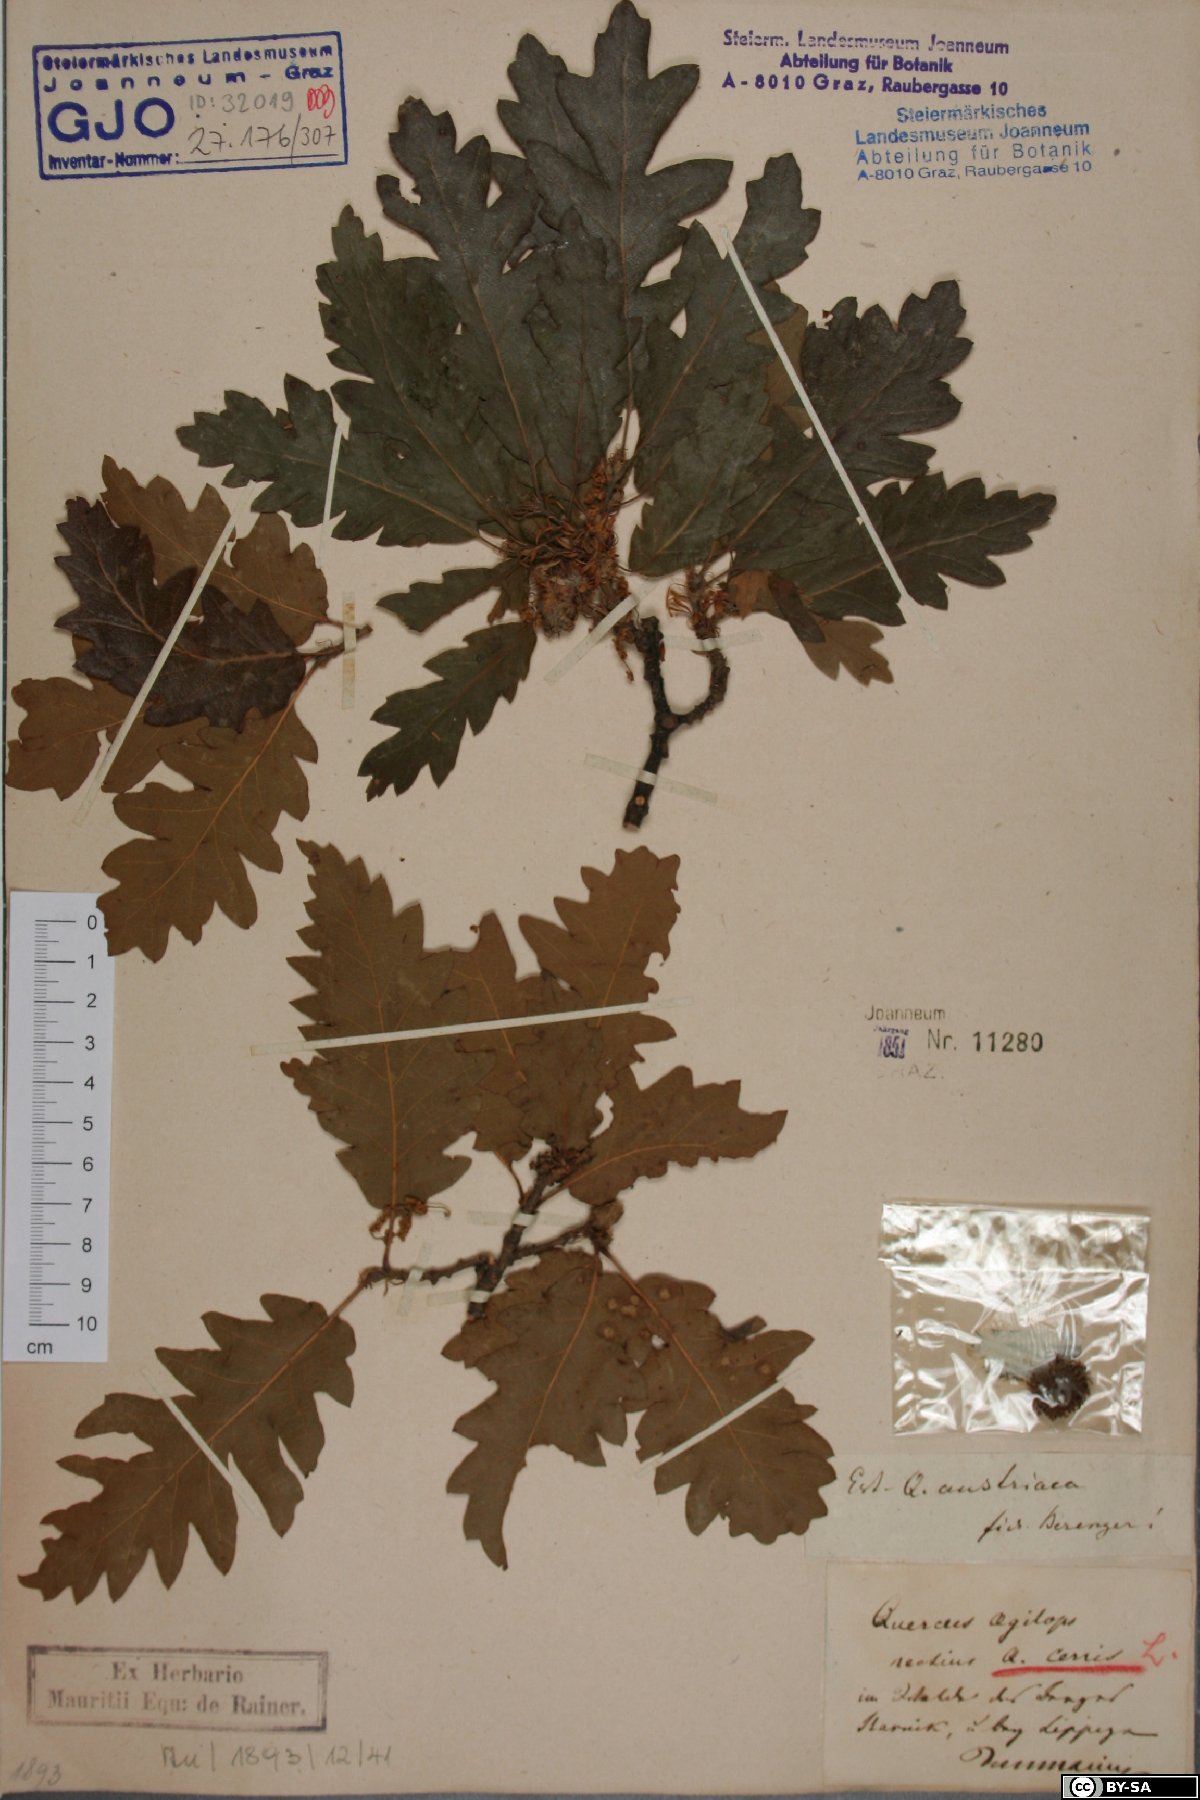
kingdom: Plantae
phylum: Tracheophyta
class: Magnoliopsida
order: Fagales
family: Fagaceae
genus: Quercus
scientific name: Quercus cerris
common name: Turkey oak
